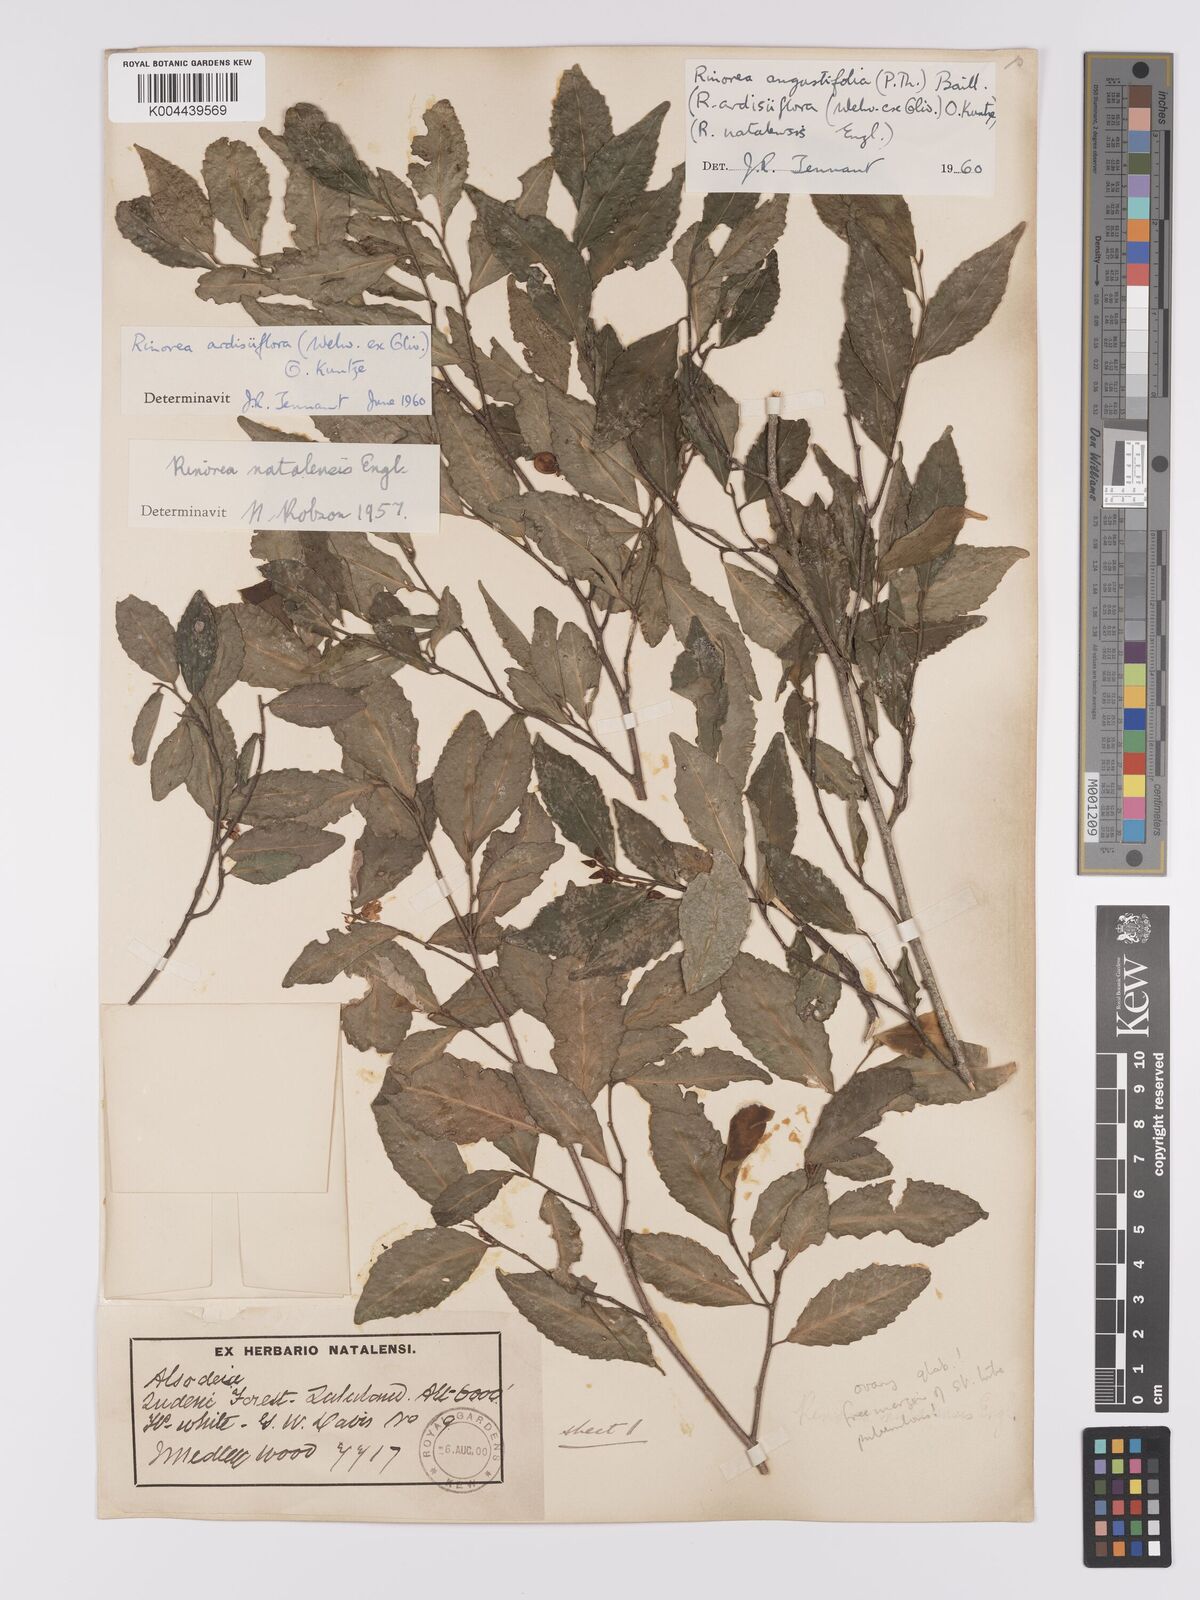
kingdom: Plantae
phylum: Tracheophyta
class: Magnoliopsida
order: Malpighiales
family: Violaceae
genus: Rinorea
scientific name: Rinorea angustifolia
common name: White violet-bush
